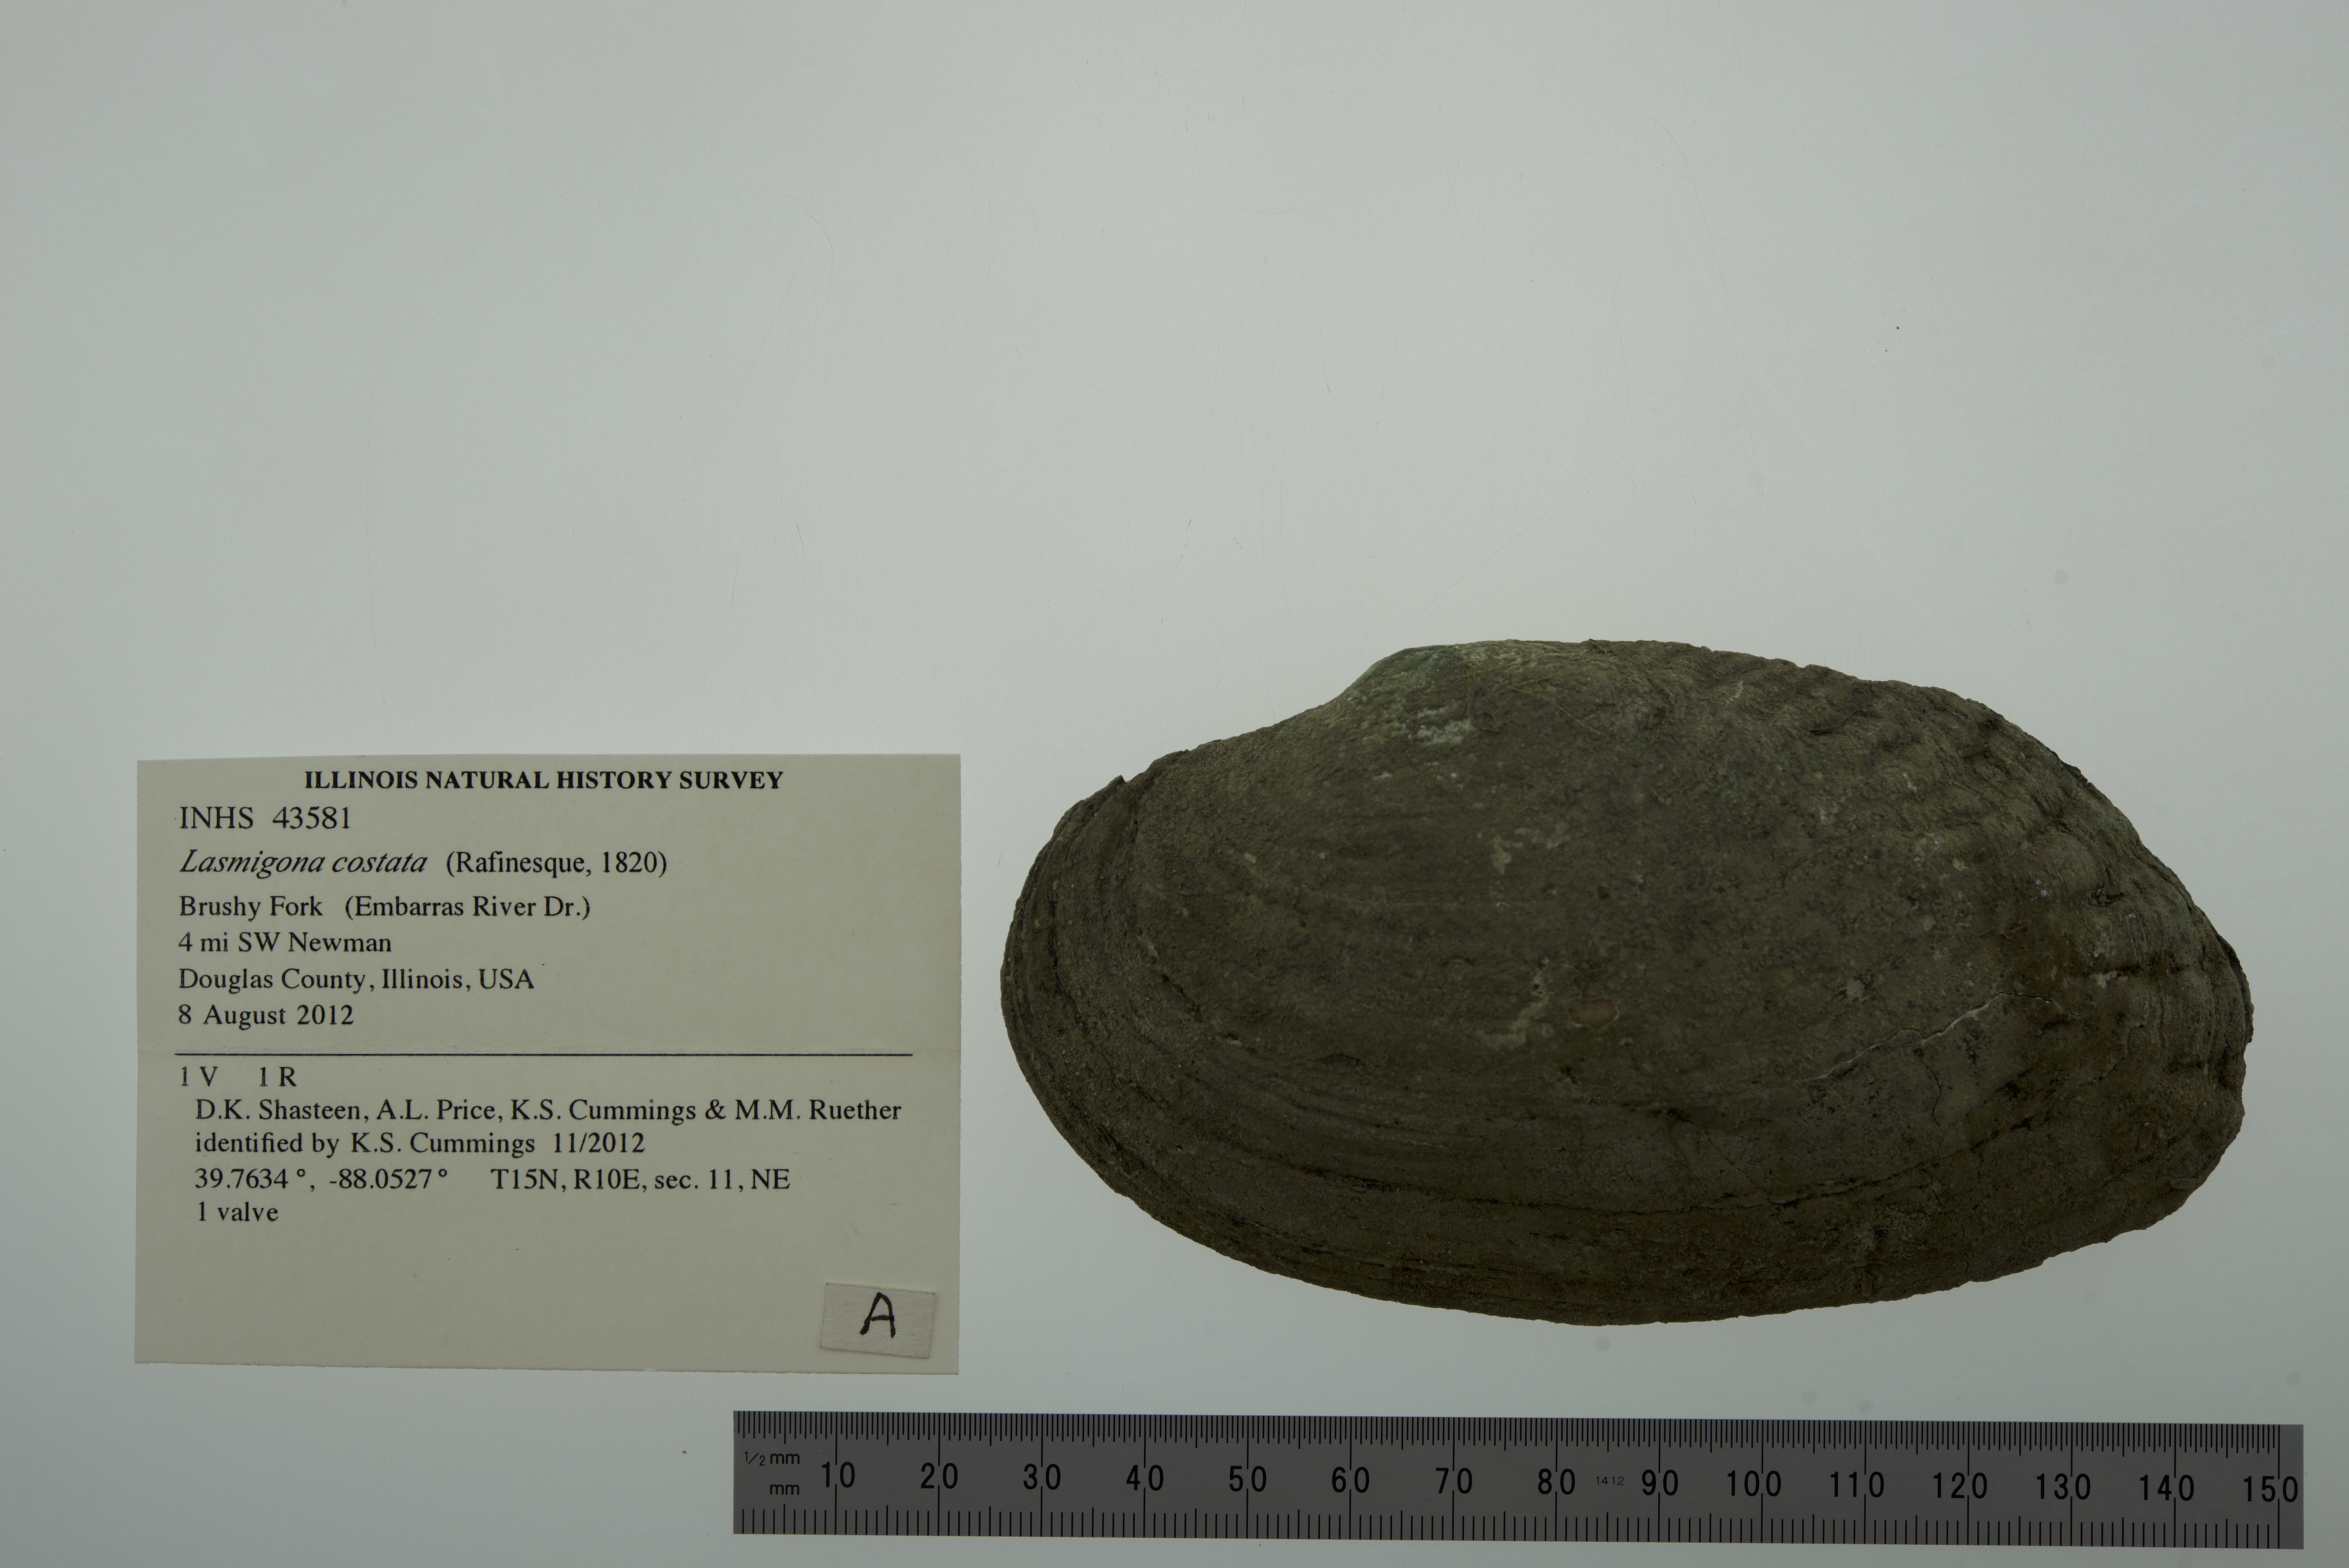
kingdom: Animalia
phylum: Mollusca
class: Bivalvia
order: Unionida
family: Unionidae
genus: Lasmigona
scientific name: Lasmigona costata
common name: Flutedshell
